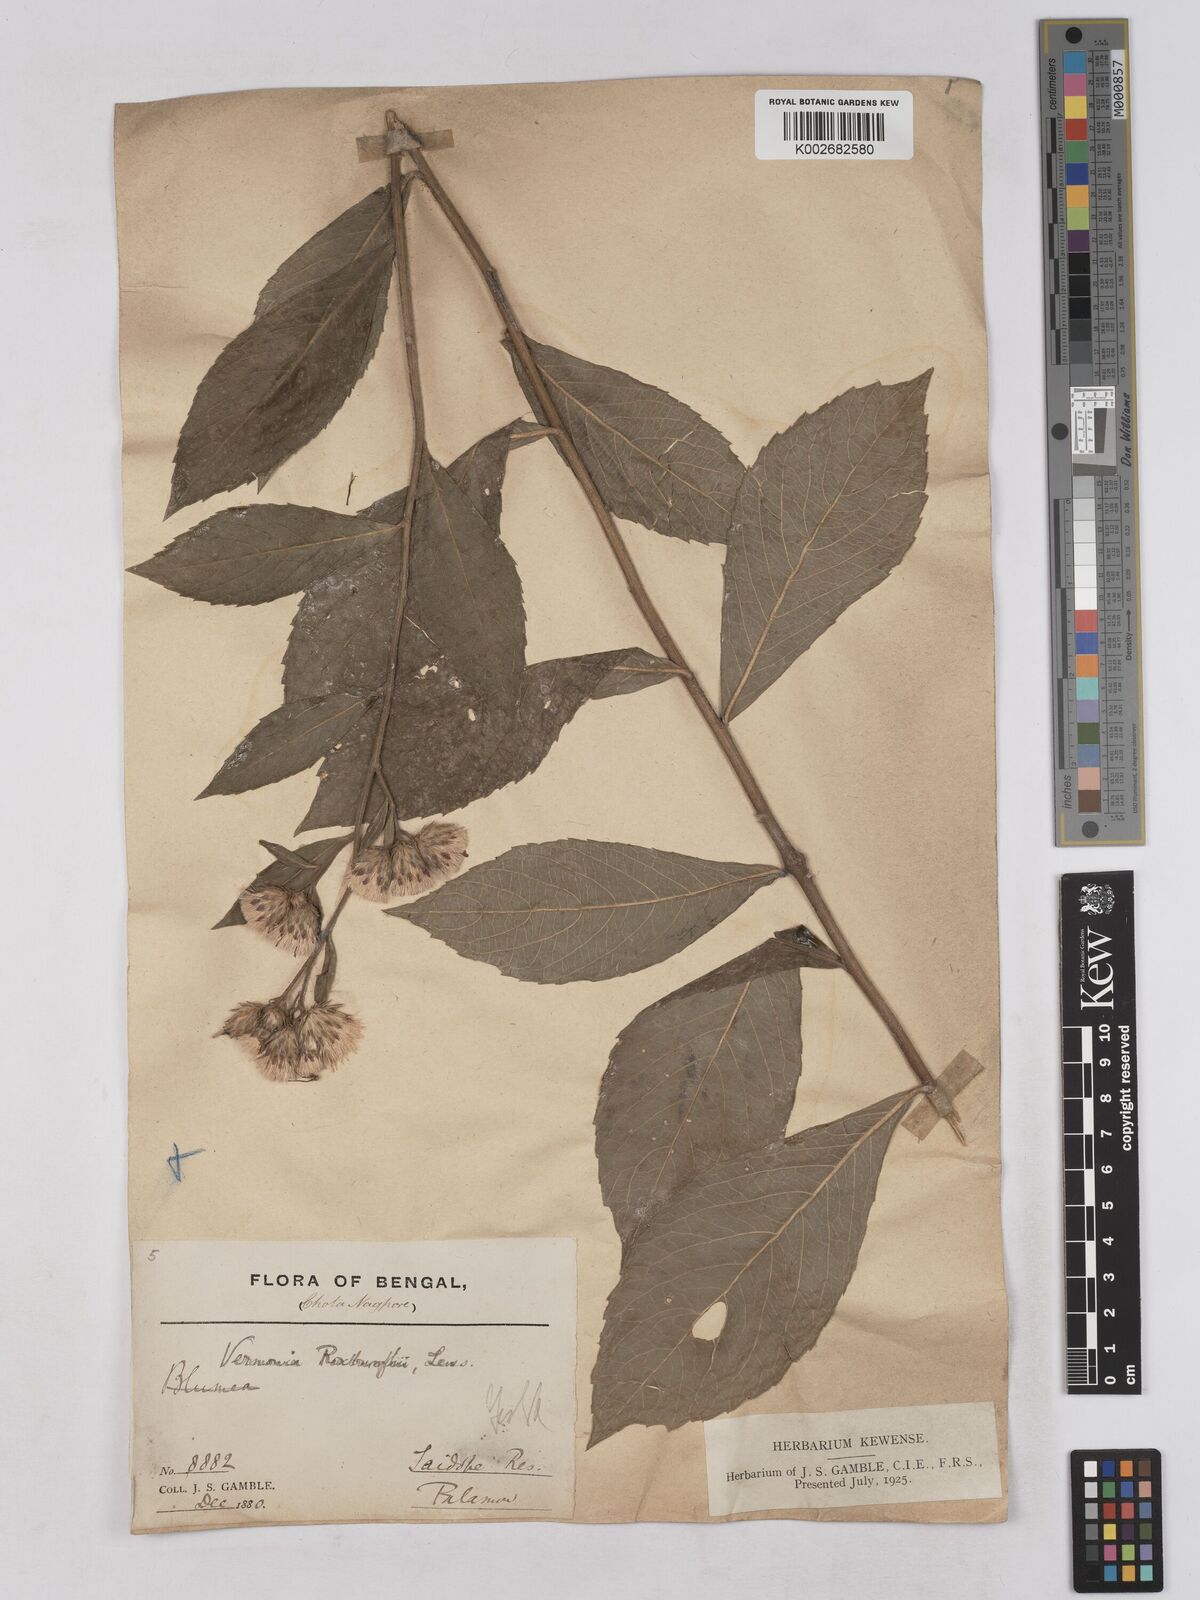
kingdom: Plantae
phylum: Tracheophyta
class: Magnoliopsida
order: Asterales
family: Asteraceae
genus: Acilepis
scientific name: Acilepis aspera
